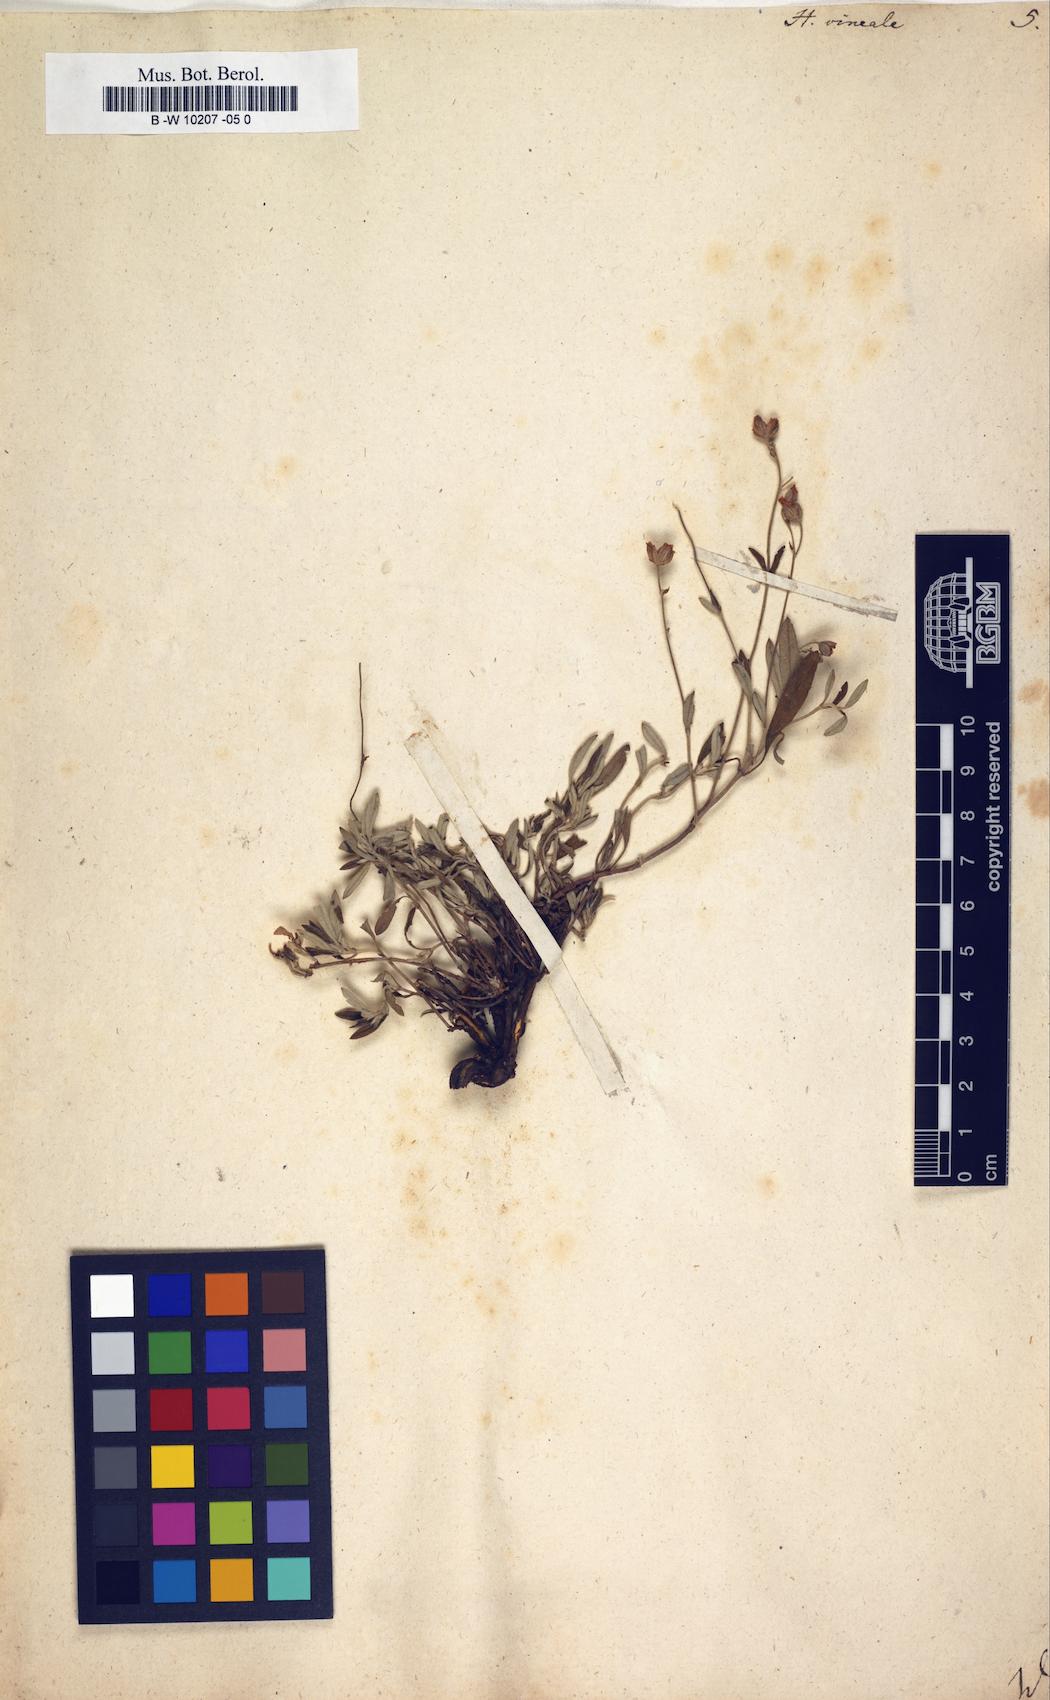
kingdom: Plantae
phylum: Tracheophyta
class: Magnoliopsida
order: Malvales
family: Cistaceae
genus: Helianthemum
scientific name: Helianthemum canum
